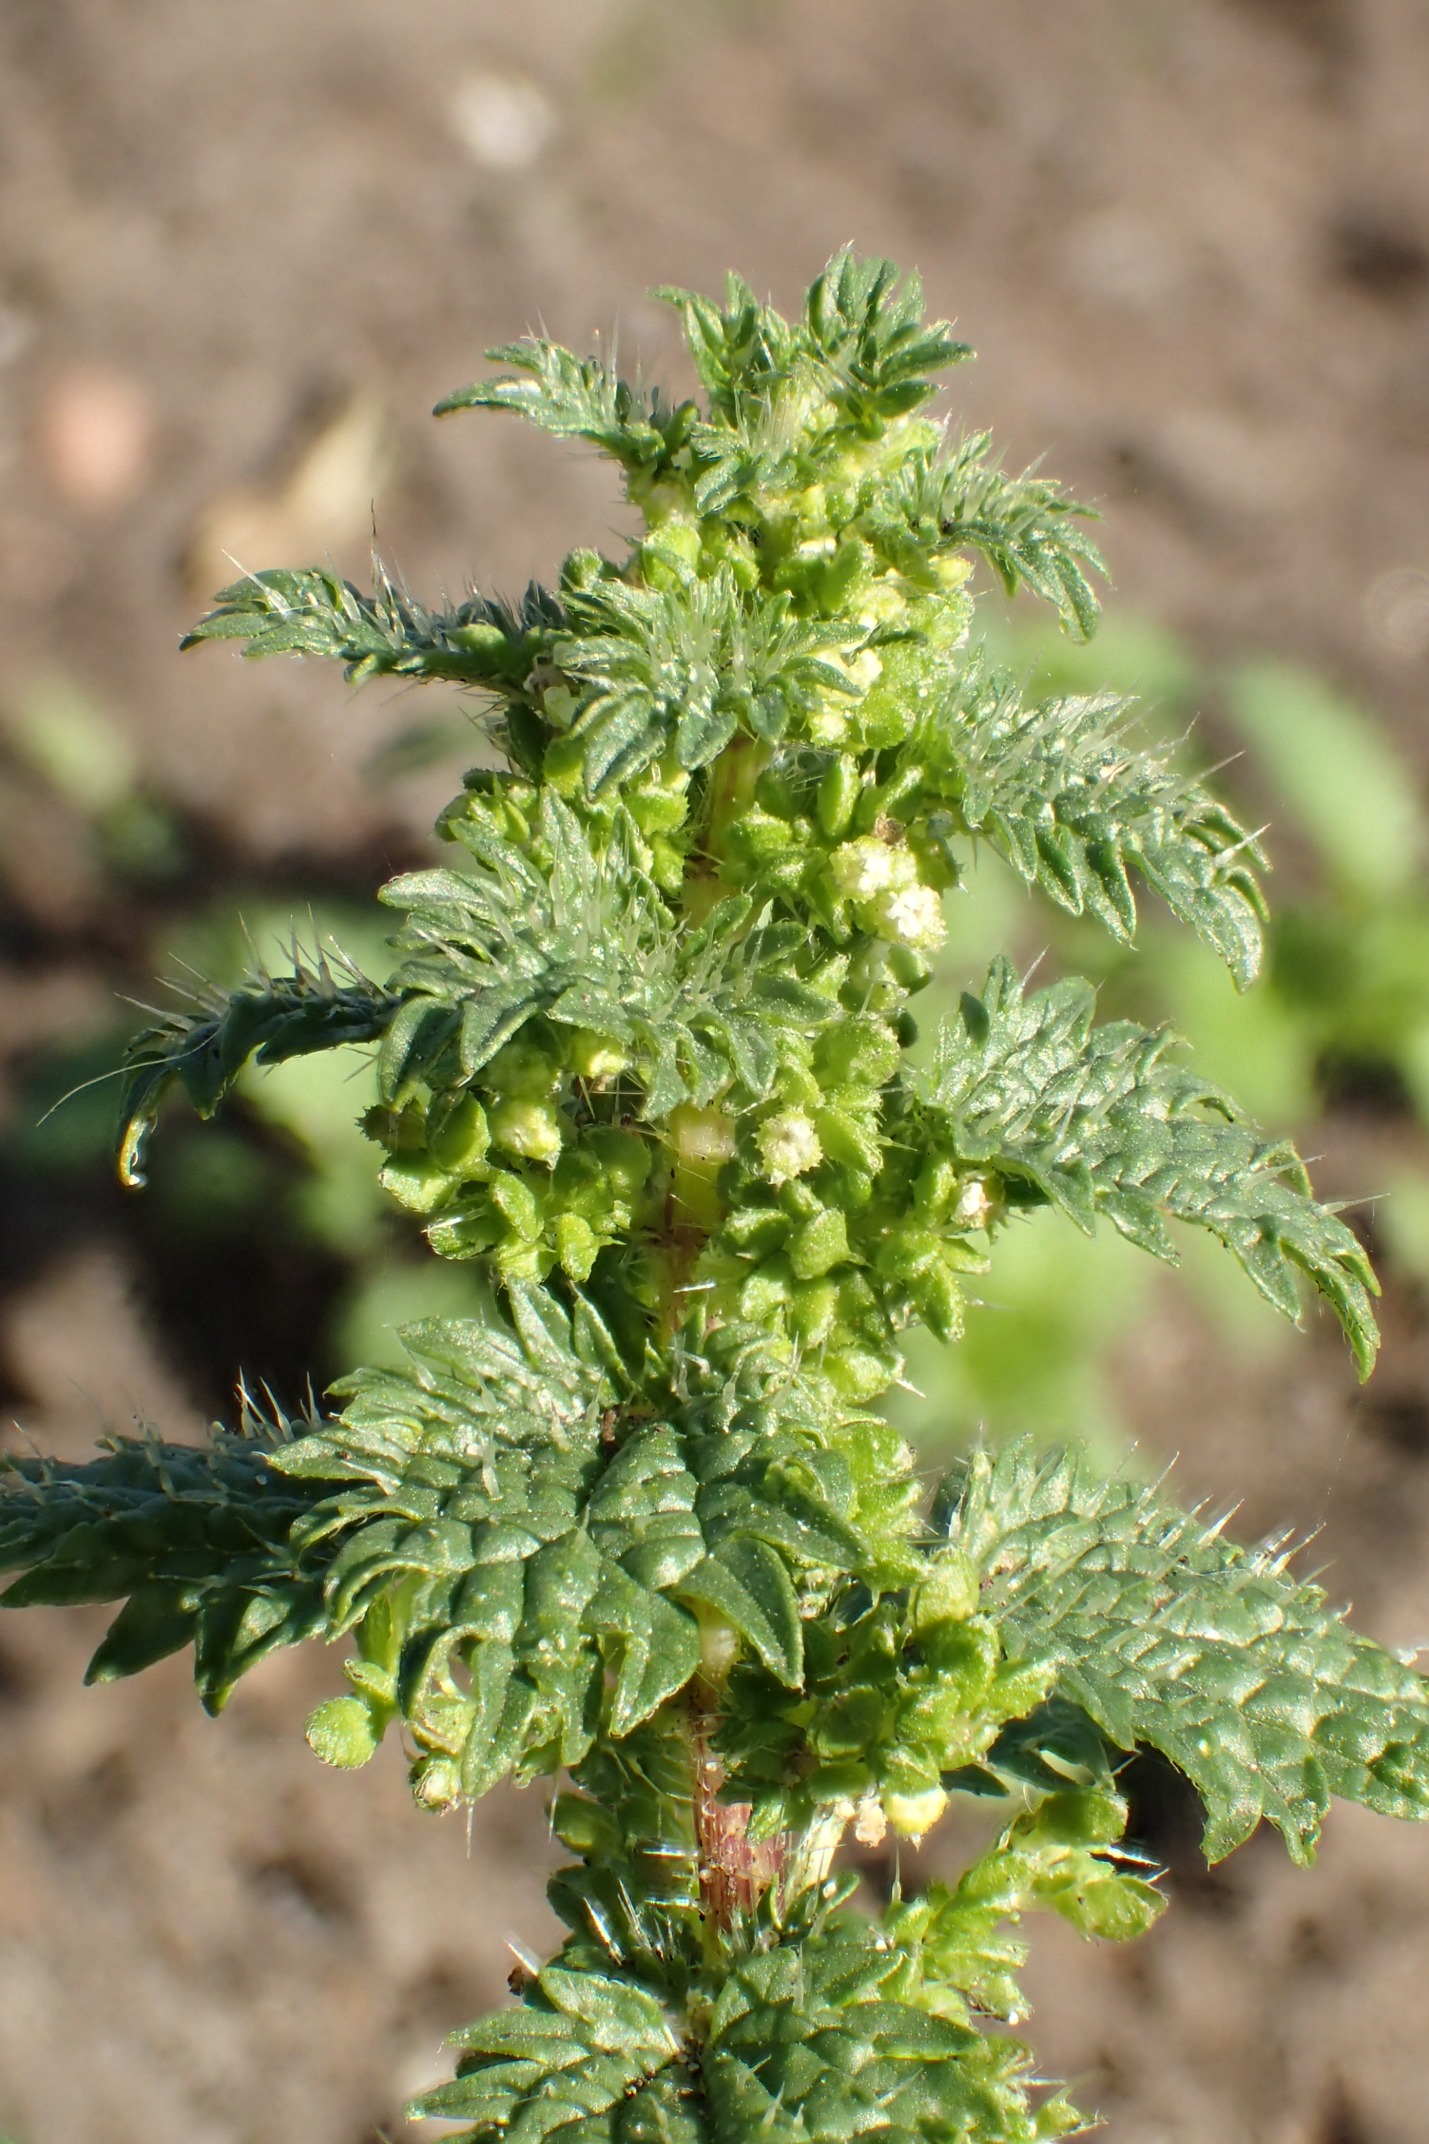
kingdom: Plantae
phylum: Tracheophyta
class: Magnoliopsida
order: Rosales
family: Urticaceae
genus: Urtica
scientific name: Urtica urens
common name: Liden nælde
